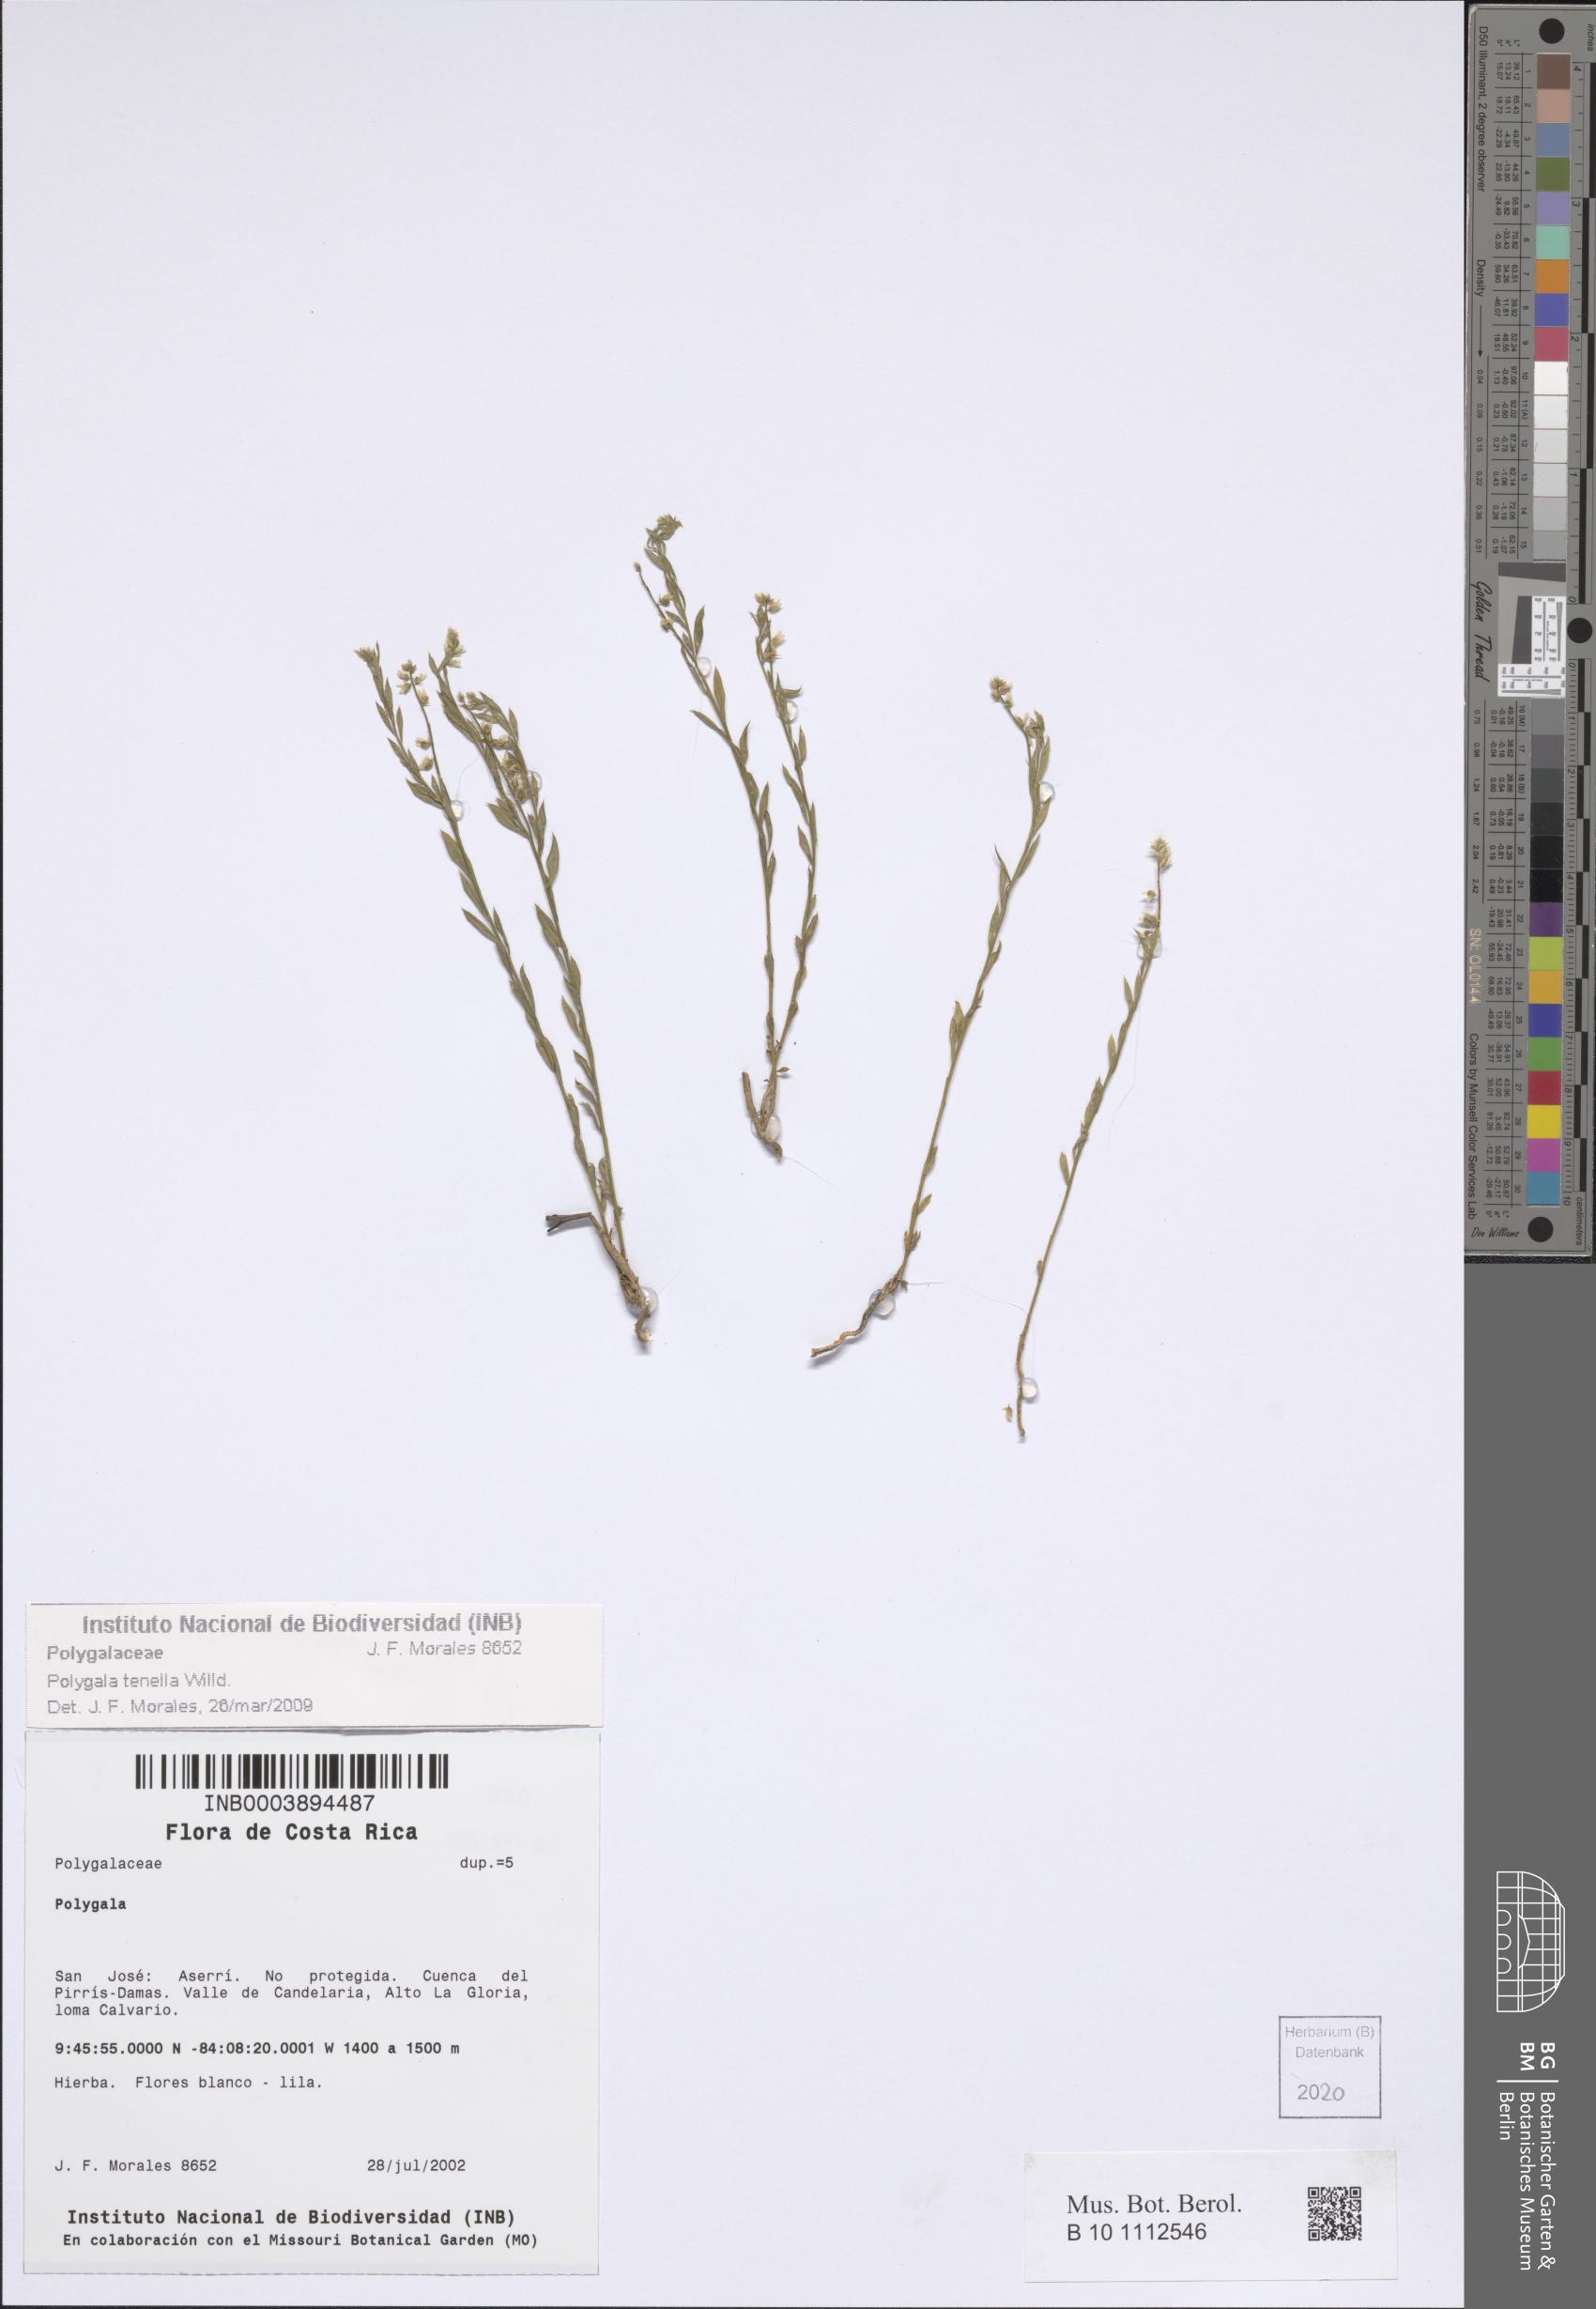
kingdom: Plantae
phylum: Tracheophyta
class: Magnoliopsida
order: Fabales
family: Polygalaceae
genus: Polygala
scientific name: Polygala tenella
